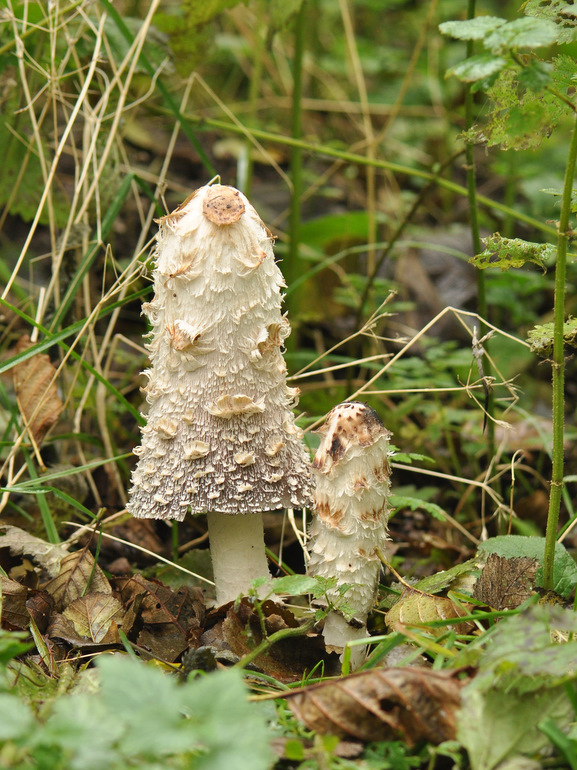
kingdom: Fungi
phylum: Basidiomycota
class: Agaricomycetes
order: Agaricales
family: Agaricaceae
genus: Coprinus
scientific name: Coprinus comatus
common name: stor parykhat
